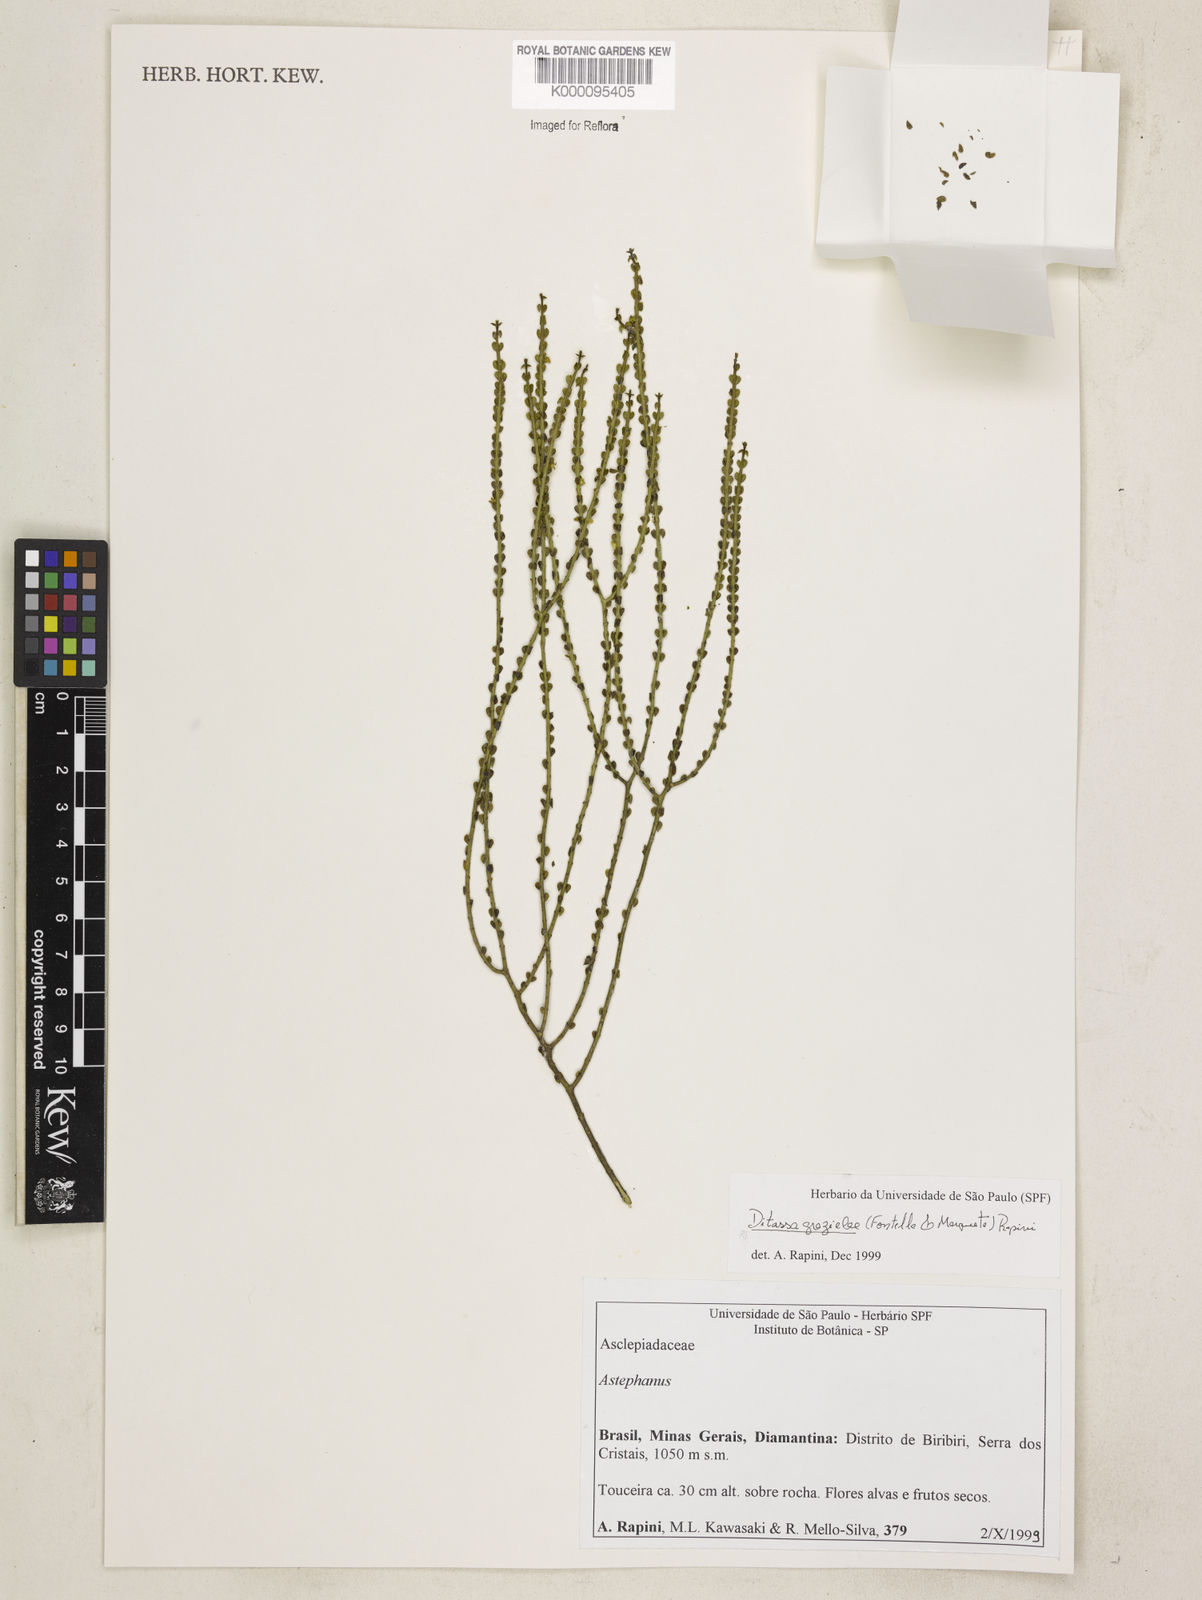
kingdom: Plantae
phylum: Tracheophyta
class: Magnoliopsida
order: Gentianales
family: Apocynaceae
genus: Minaria
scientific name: Minaria grazielae
